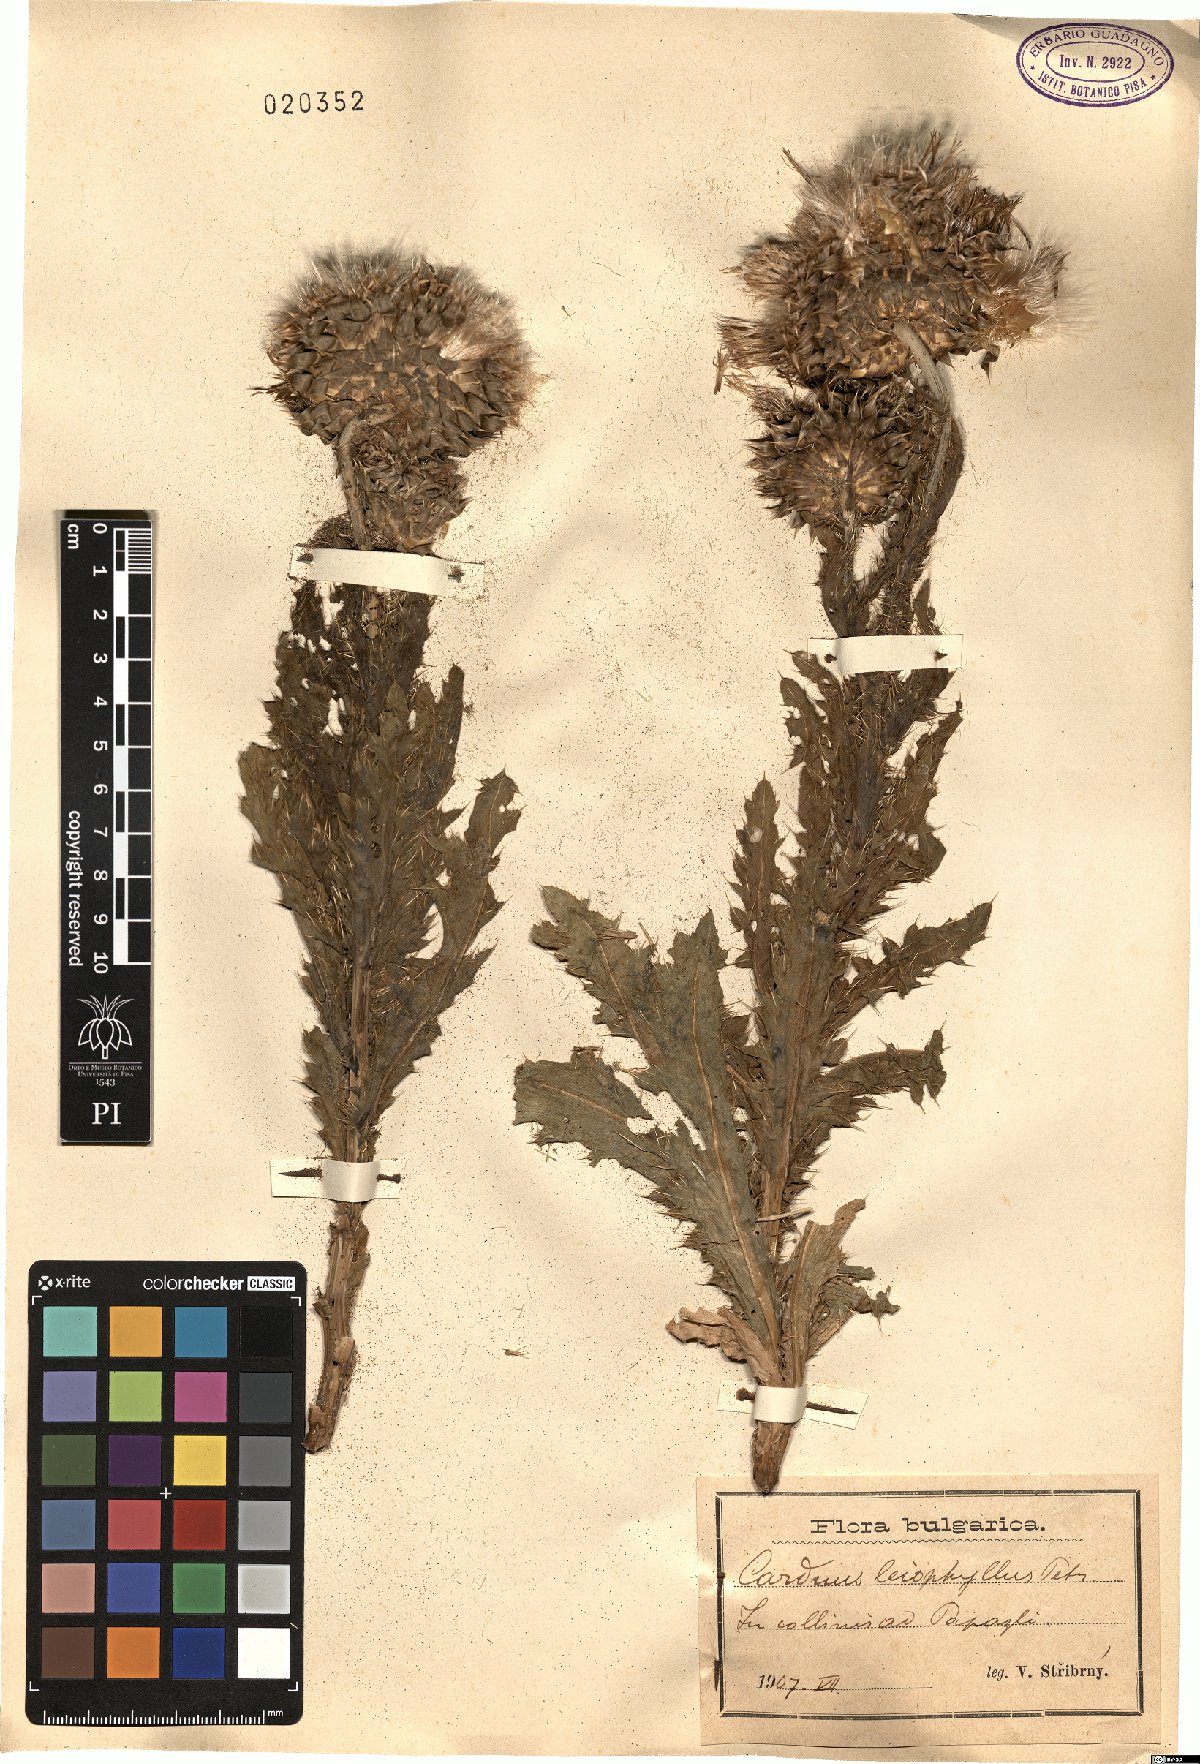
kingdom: Plantae
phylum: Tracheophyta
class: Magnoliopsida
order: Asterales
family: Asteraceae
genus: Carduus
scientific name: Carduus nutans
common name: Musk thistle
